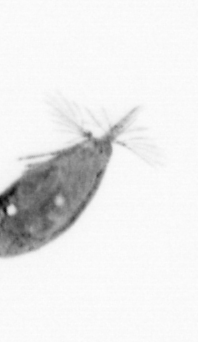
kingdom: Animalia
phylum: Arthropoda
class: Maxillopoda
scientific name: Maxillopoda
